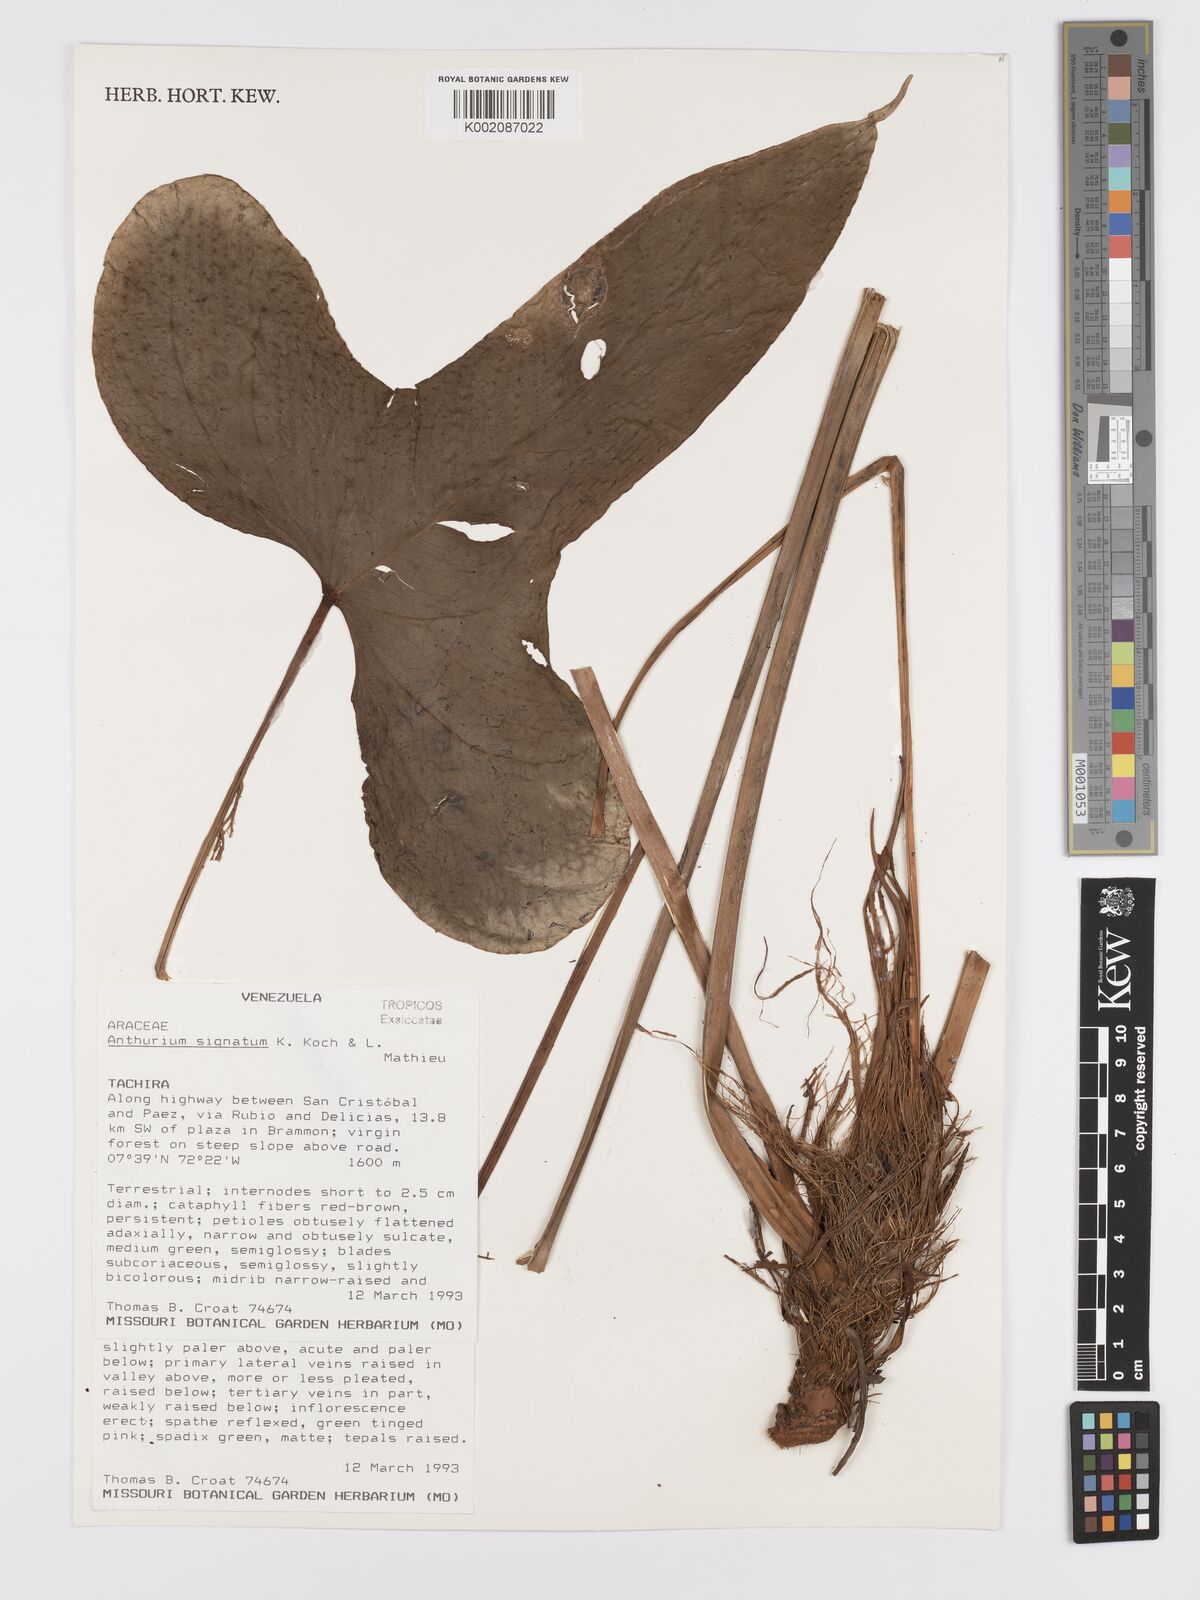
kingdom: Plantae
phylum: Tracheophyta
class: Liliopsida
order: Alismatales
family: Araceae
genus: Anthurium
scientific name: Anthurium signatum
